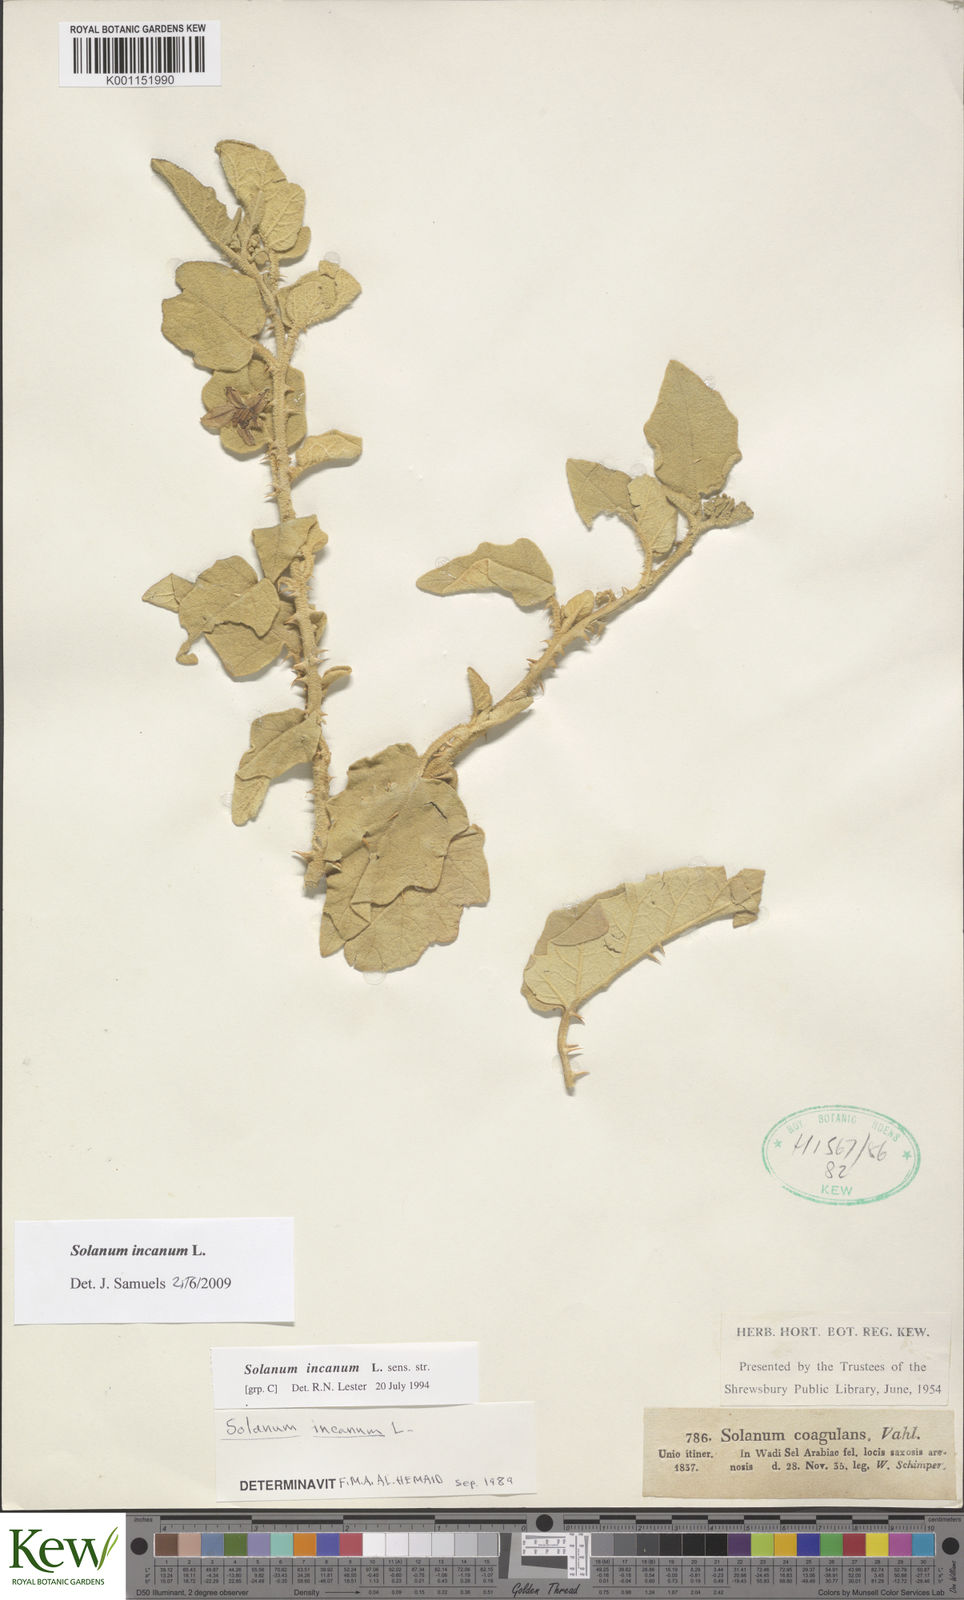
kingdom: Plantae
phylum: Tracheophyta
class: Magnoliopsida
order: Solanales
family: Solanaceae
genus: Solanum
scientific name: Solanum incanum
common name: Bitter apple
